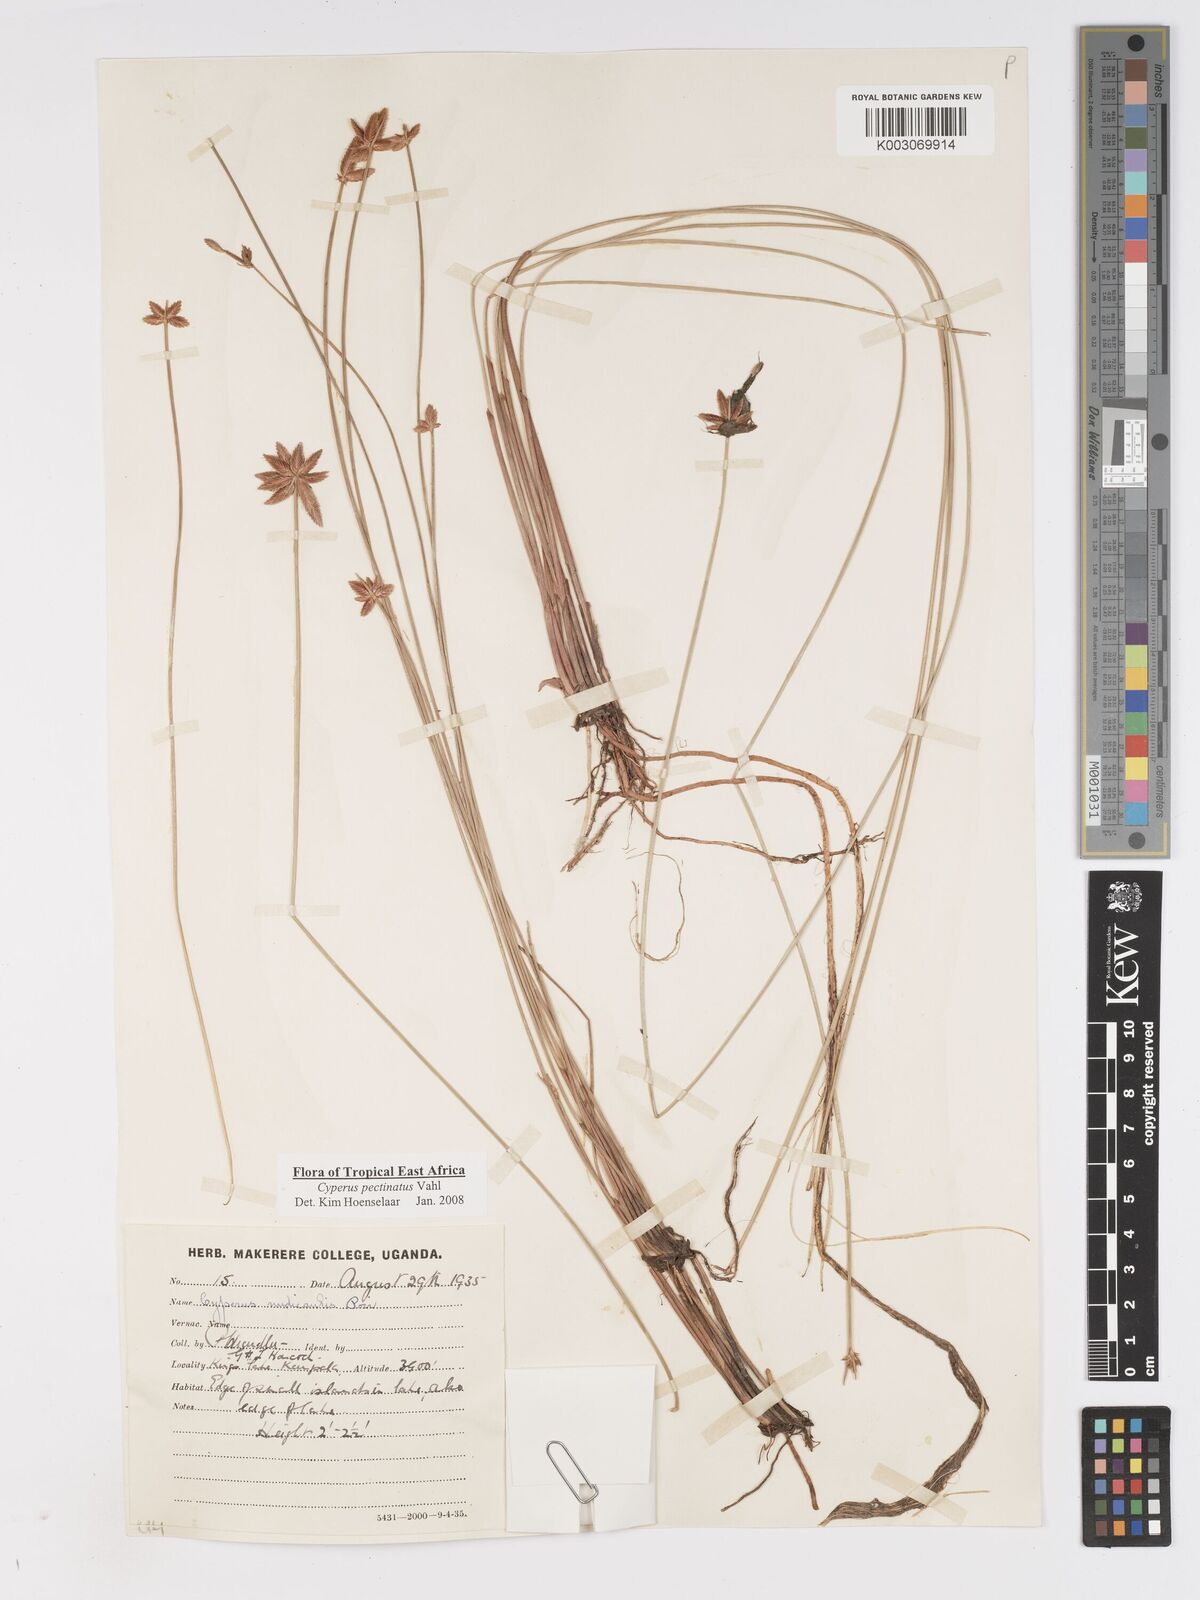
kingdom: Plantae
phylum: Tracheophyta
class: Liliopsida
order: Poales
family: Cyperaceae
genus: Cyperus
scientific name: Cyperus pectinatus
